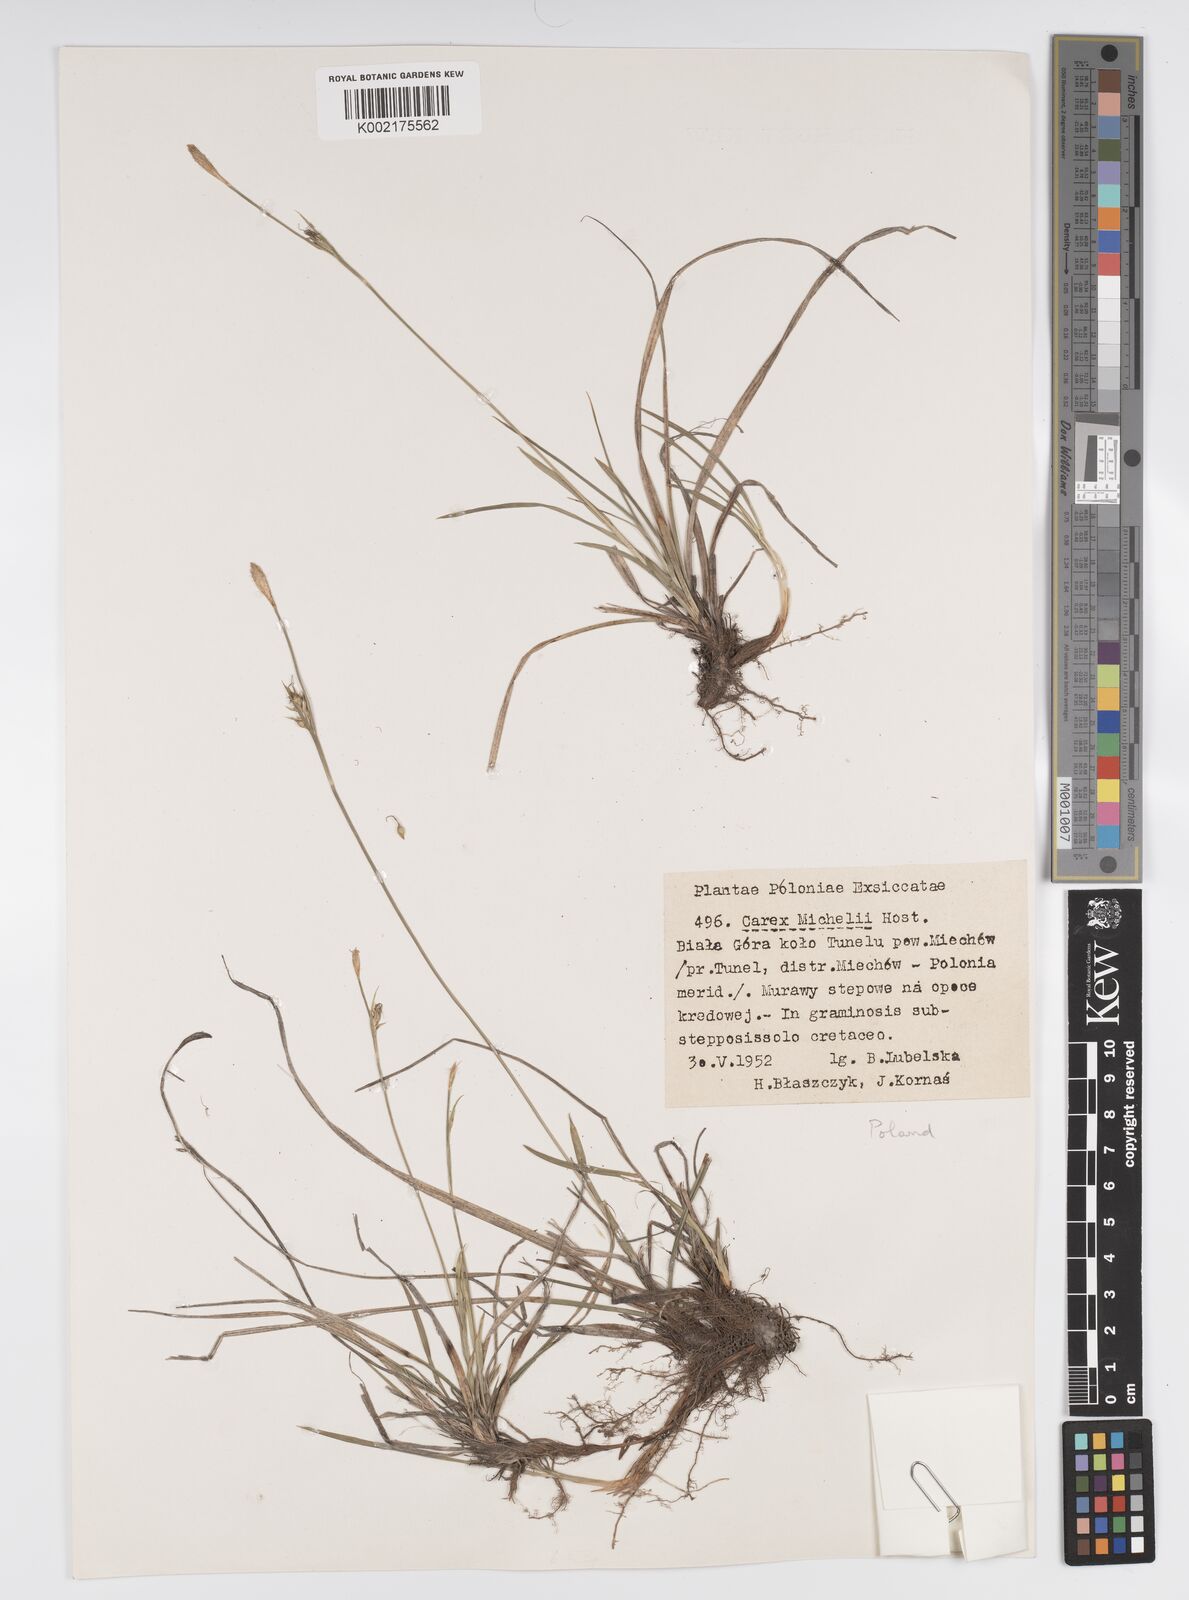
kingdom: Plantae
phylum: Tracheophyta
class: Liliopsida
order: Poales
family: Cyperaceae
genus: Carex
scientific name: Carex michelii
